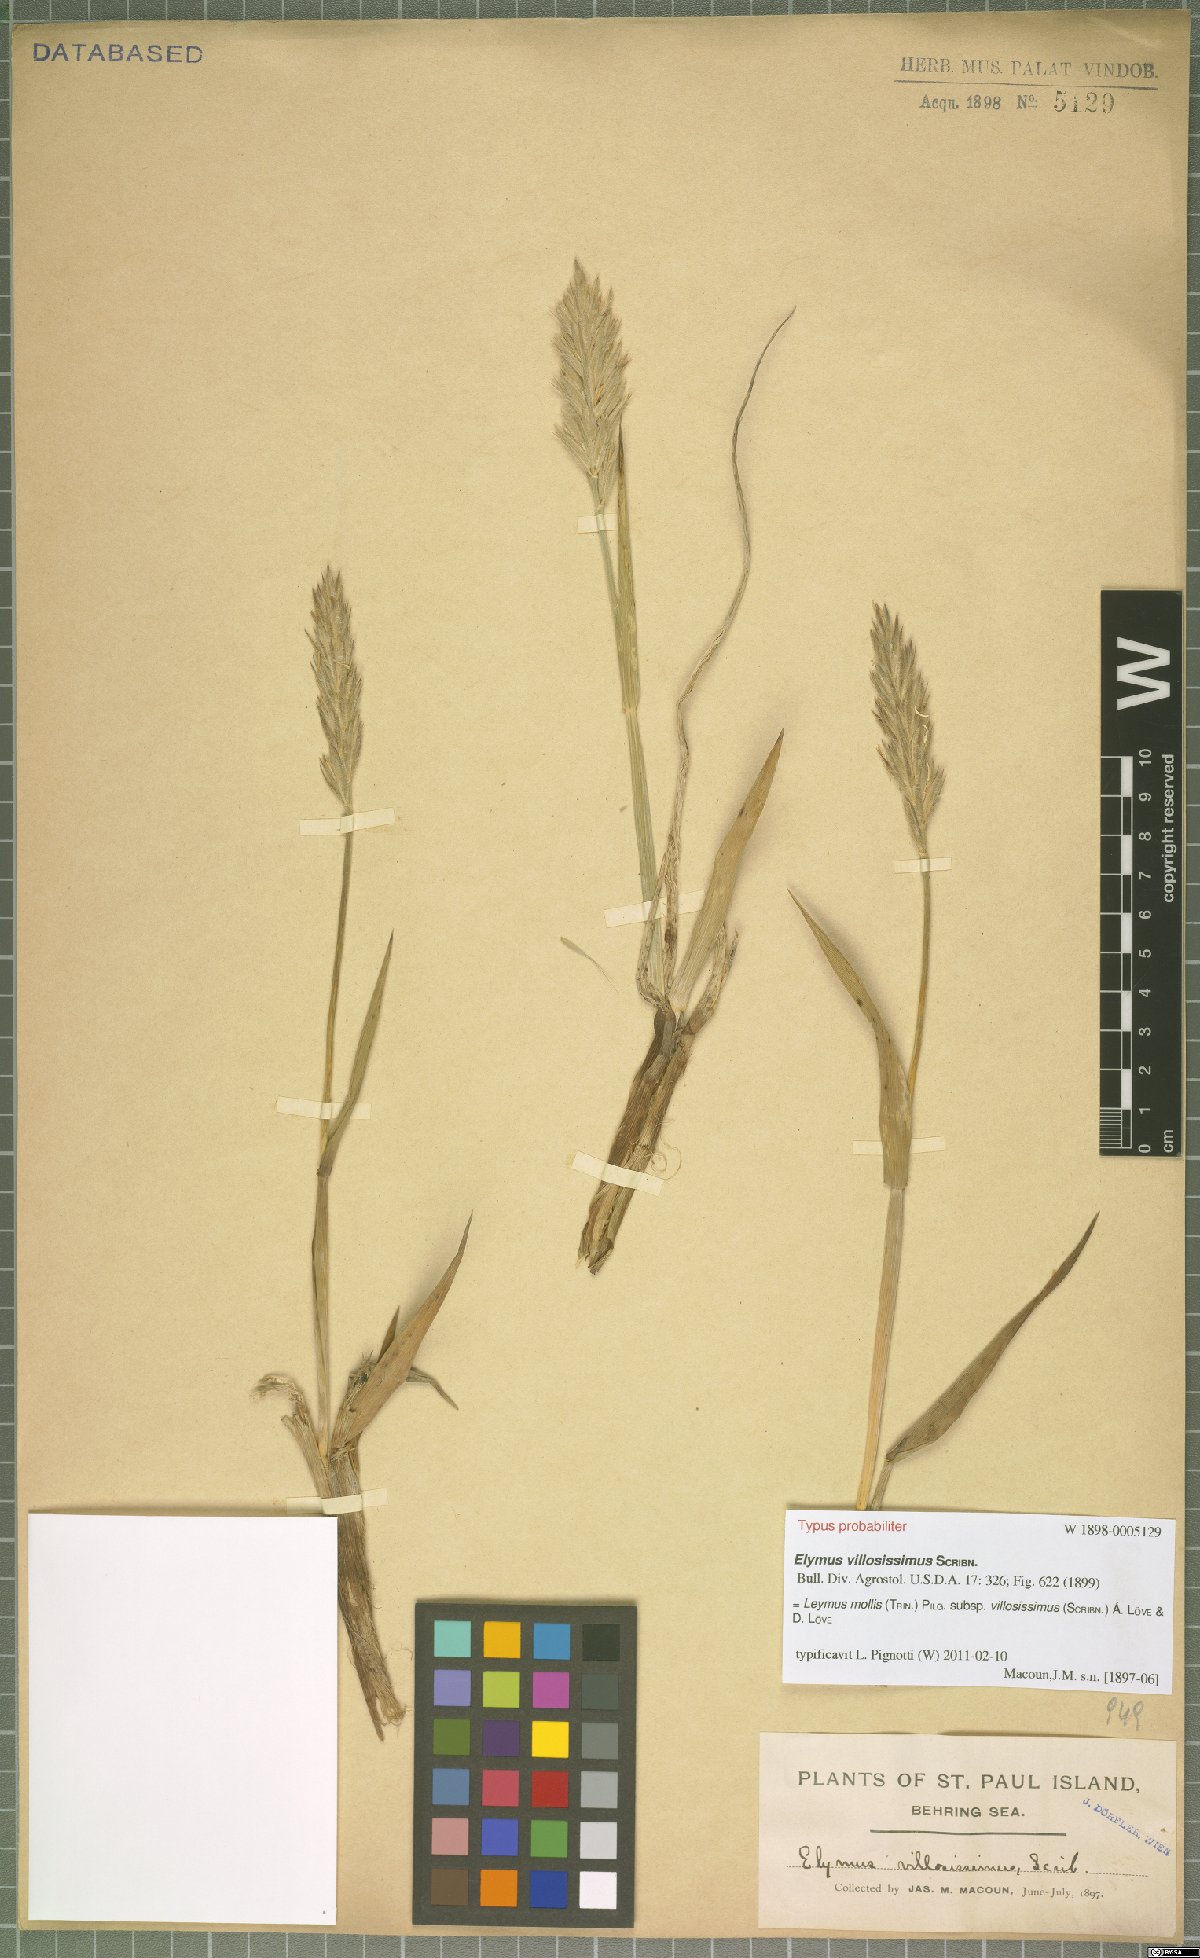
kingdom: Plantae
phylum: Tracheophyta
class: Liliopsida
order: Poales
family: Poaceae
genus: Leymus
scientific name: Leymus villosissimus
